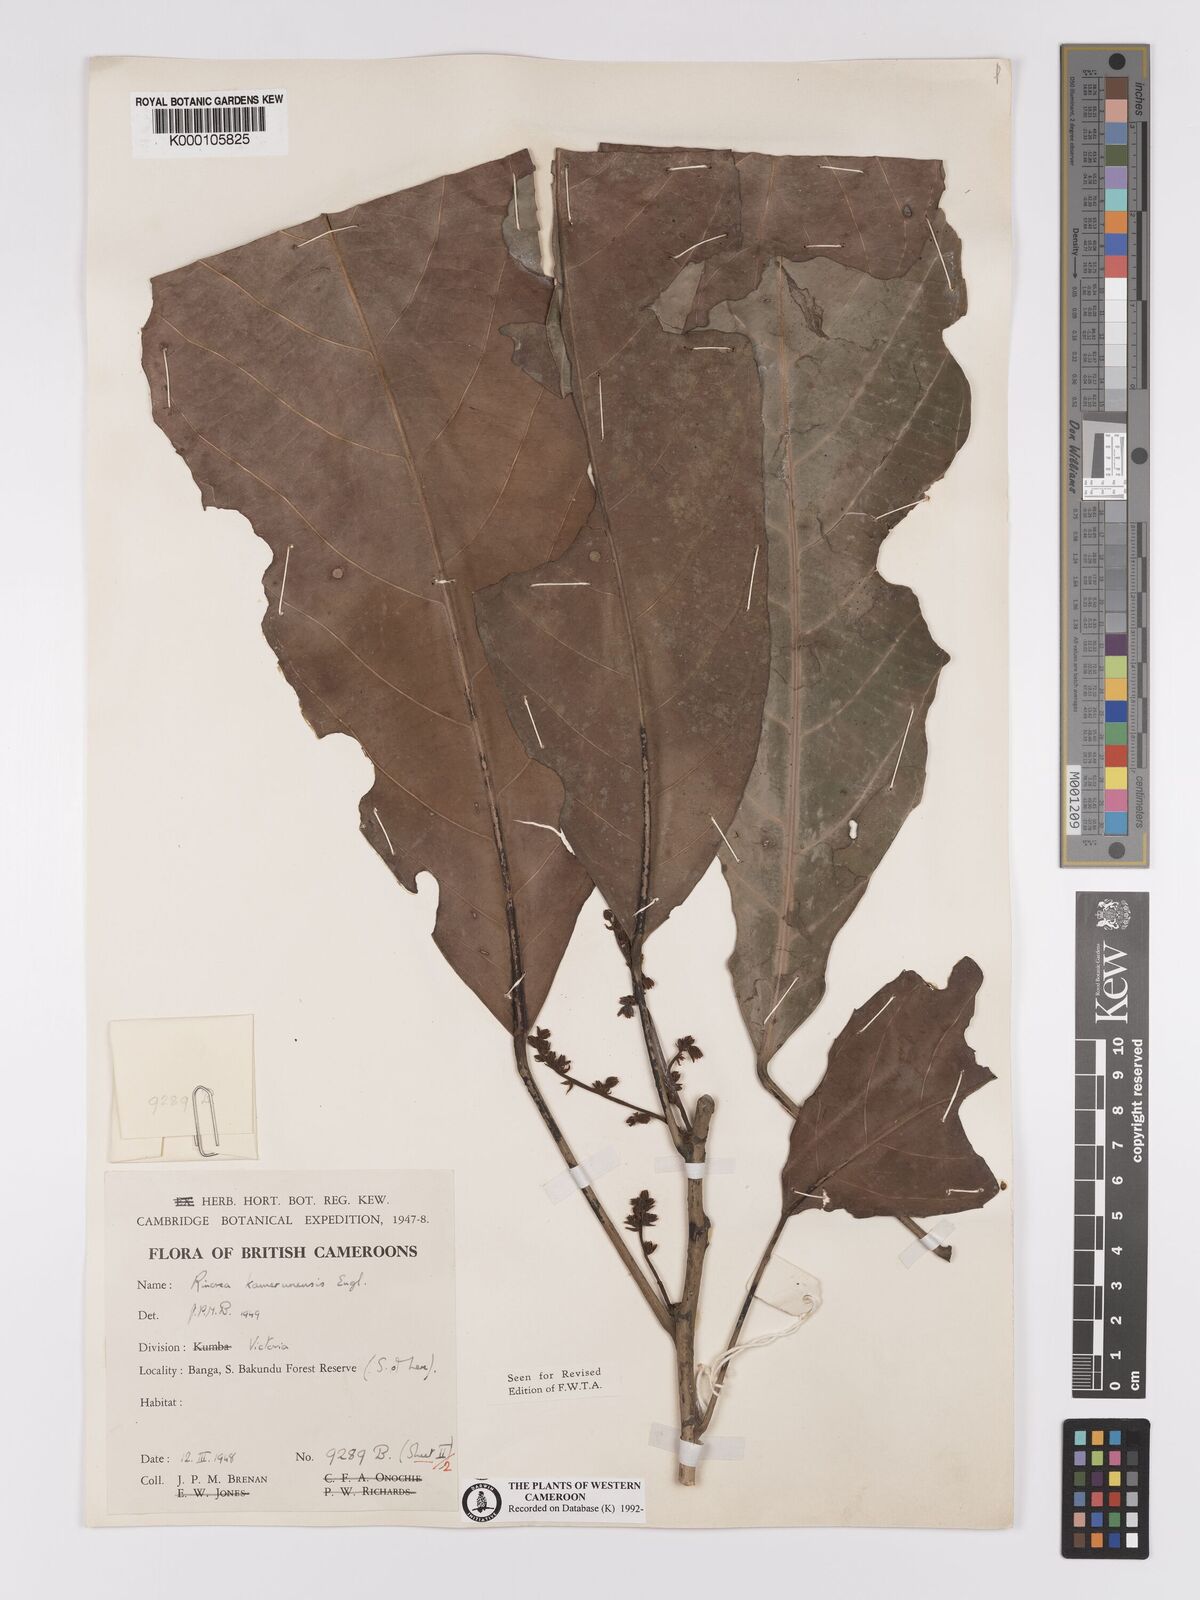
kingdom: Plantae
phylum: Tracheophyta
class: Magnoliopsida
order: Malpighiales
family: Violaceae
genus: Rinorea
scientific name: Rinorea kamerunensis
